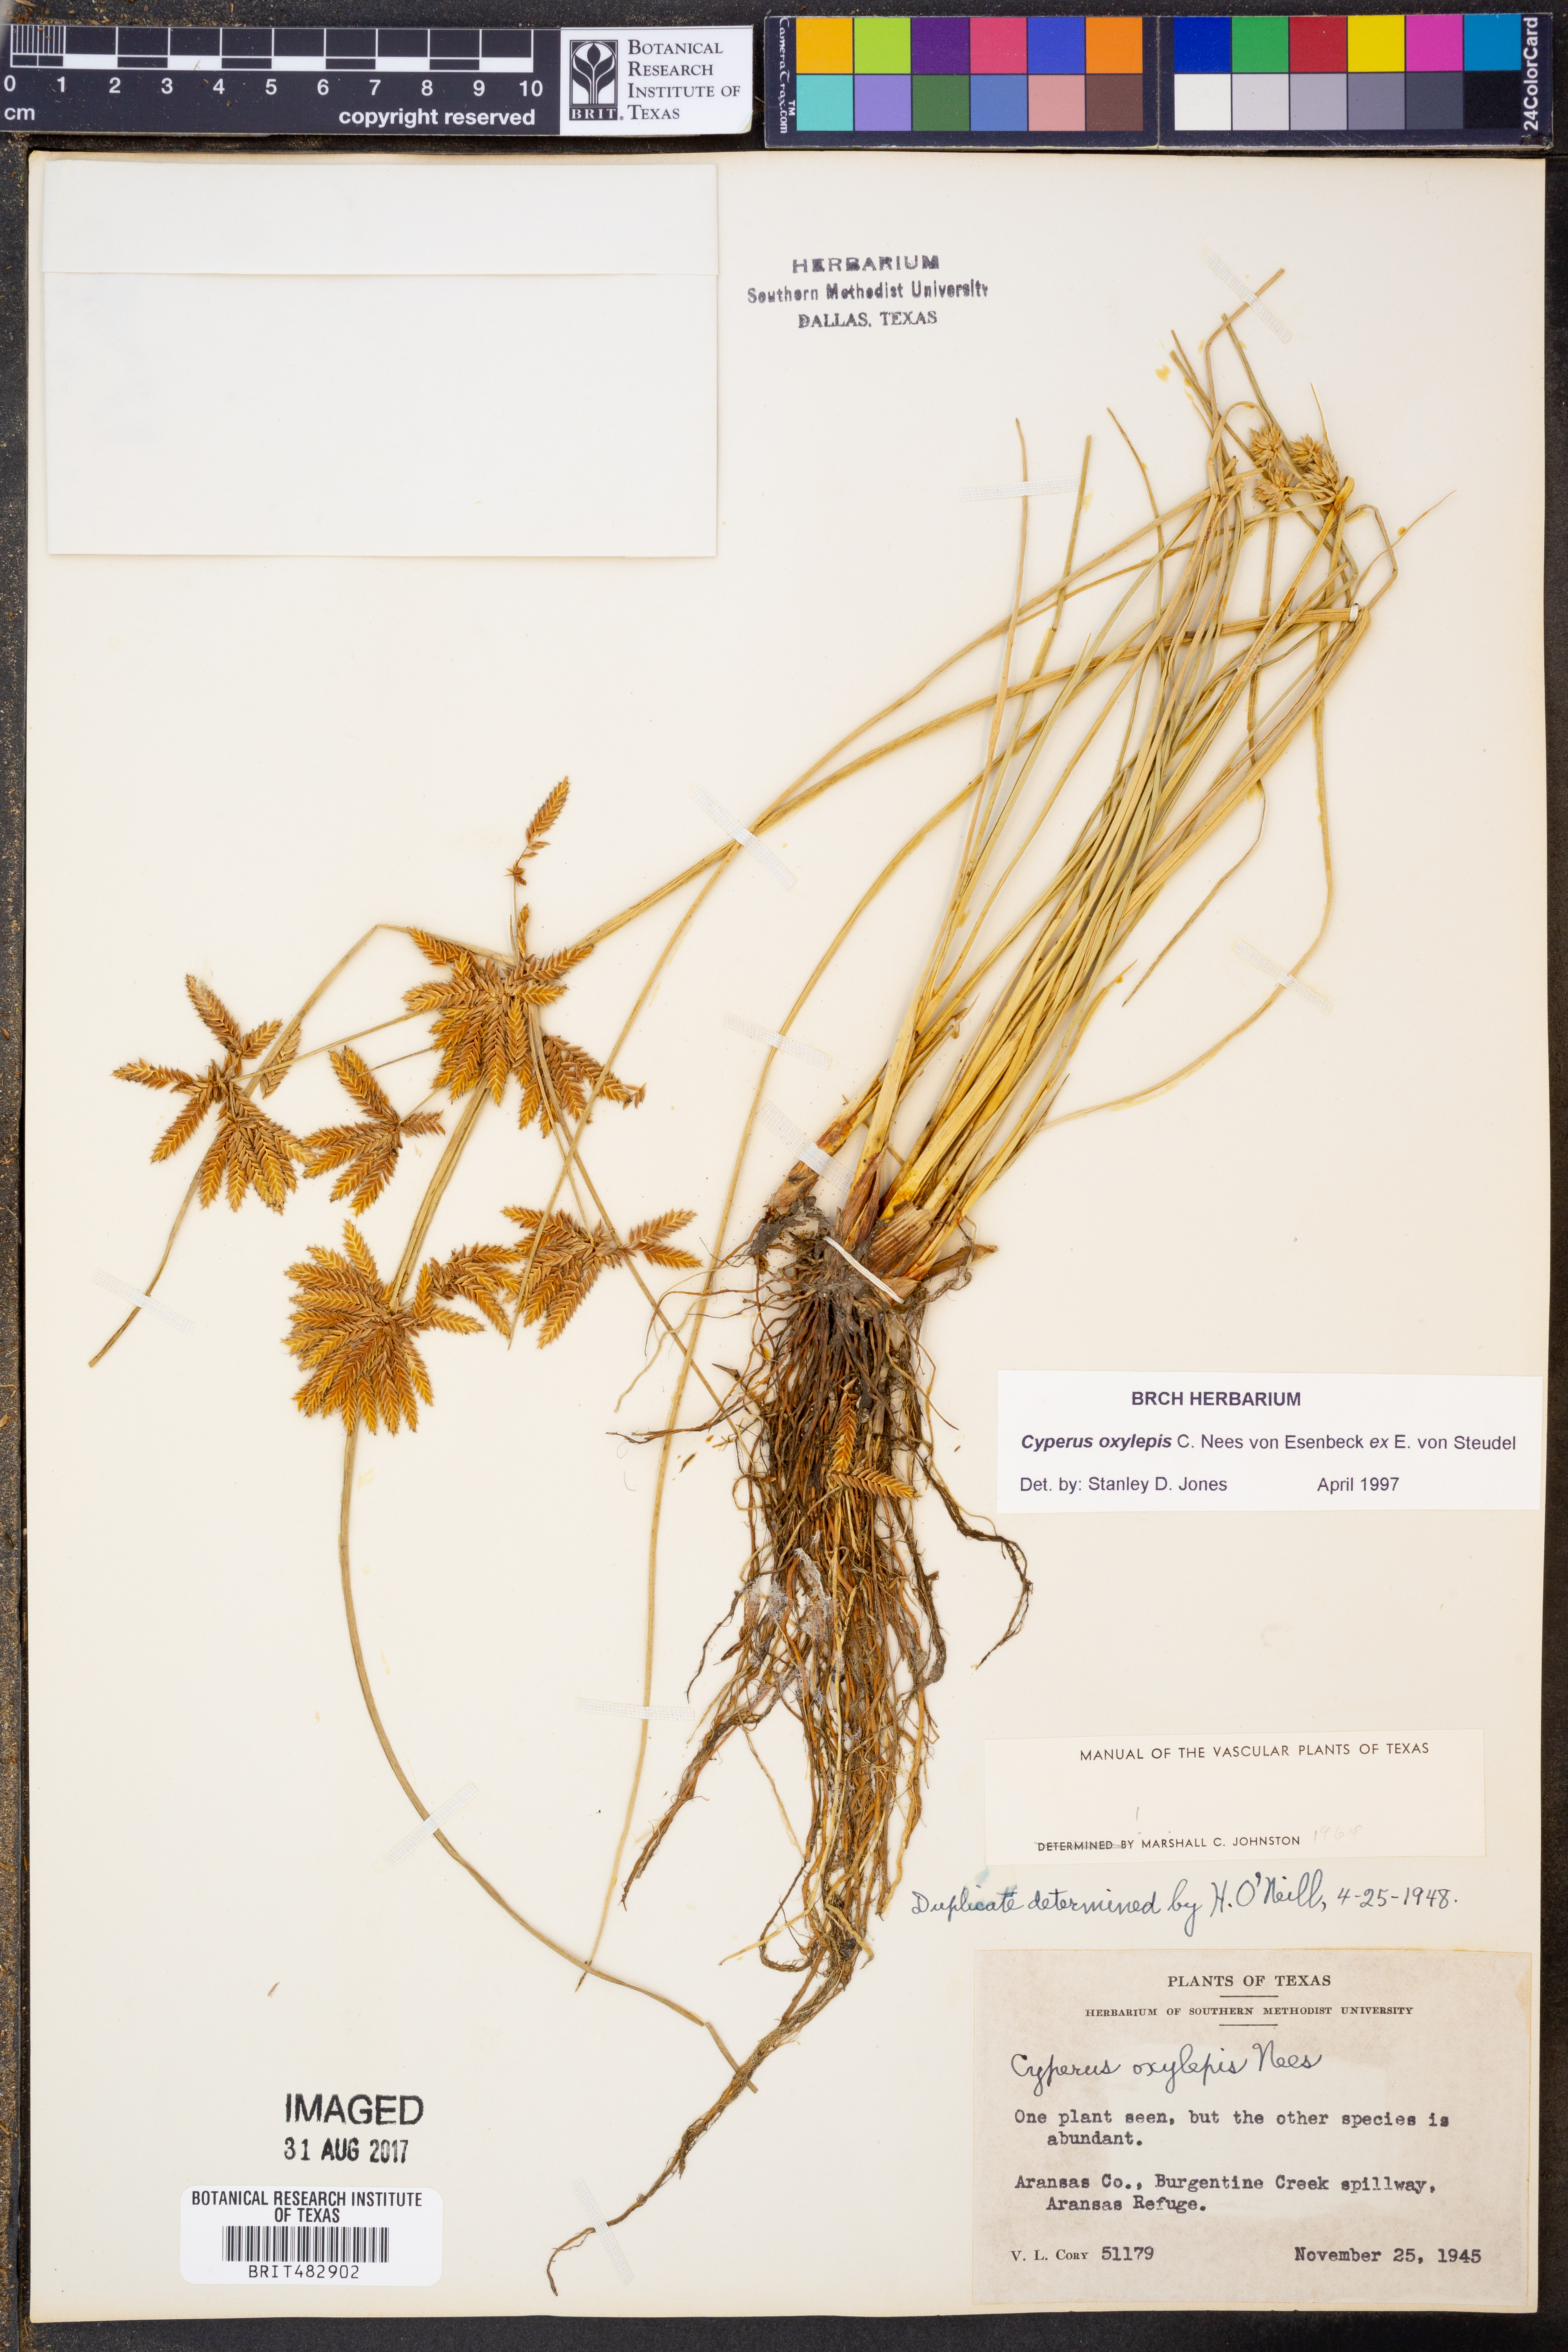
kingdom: Plantae
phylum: Tracheophyta
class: Liliopsida
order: Poales
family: Cyperaceae
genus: Cyperus
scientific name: Cyperus oxylepis
